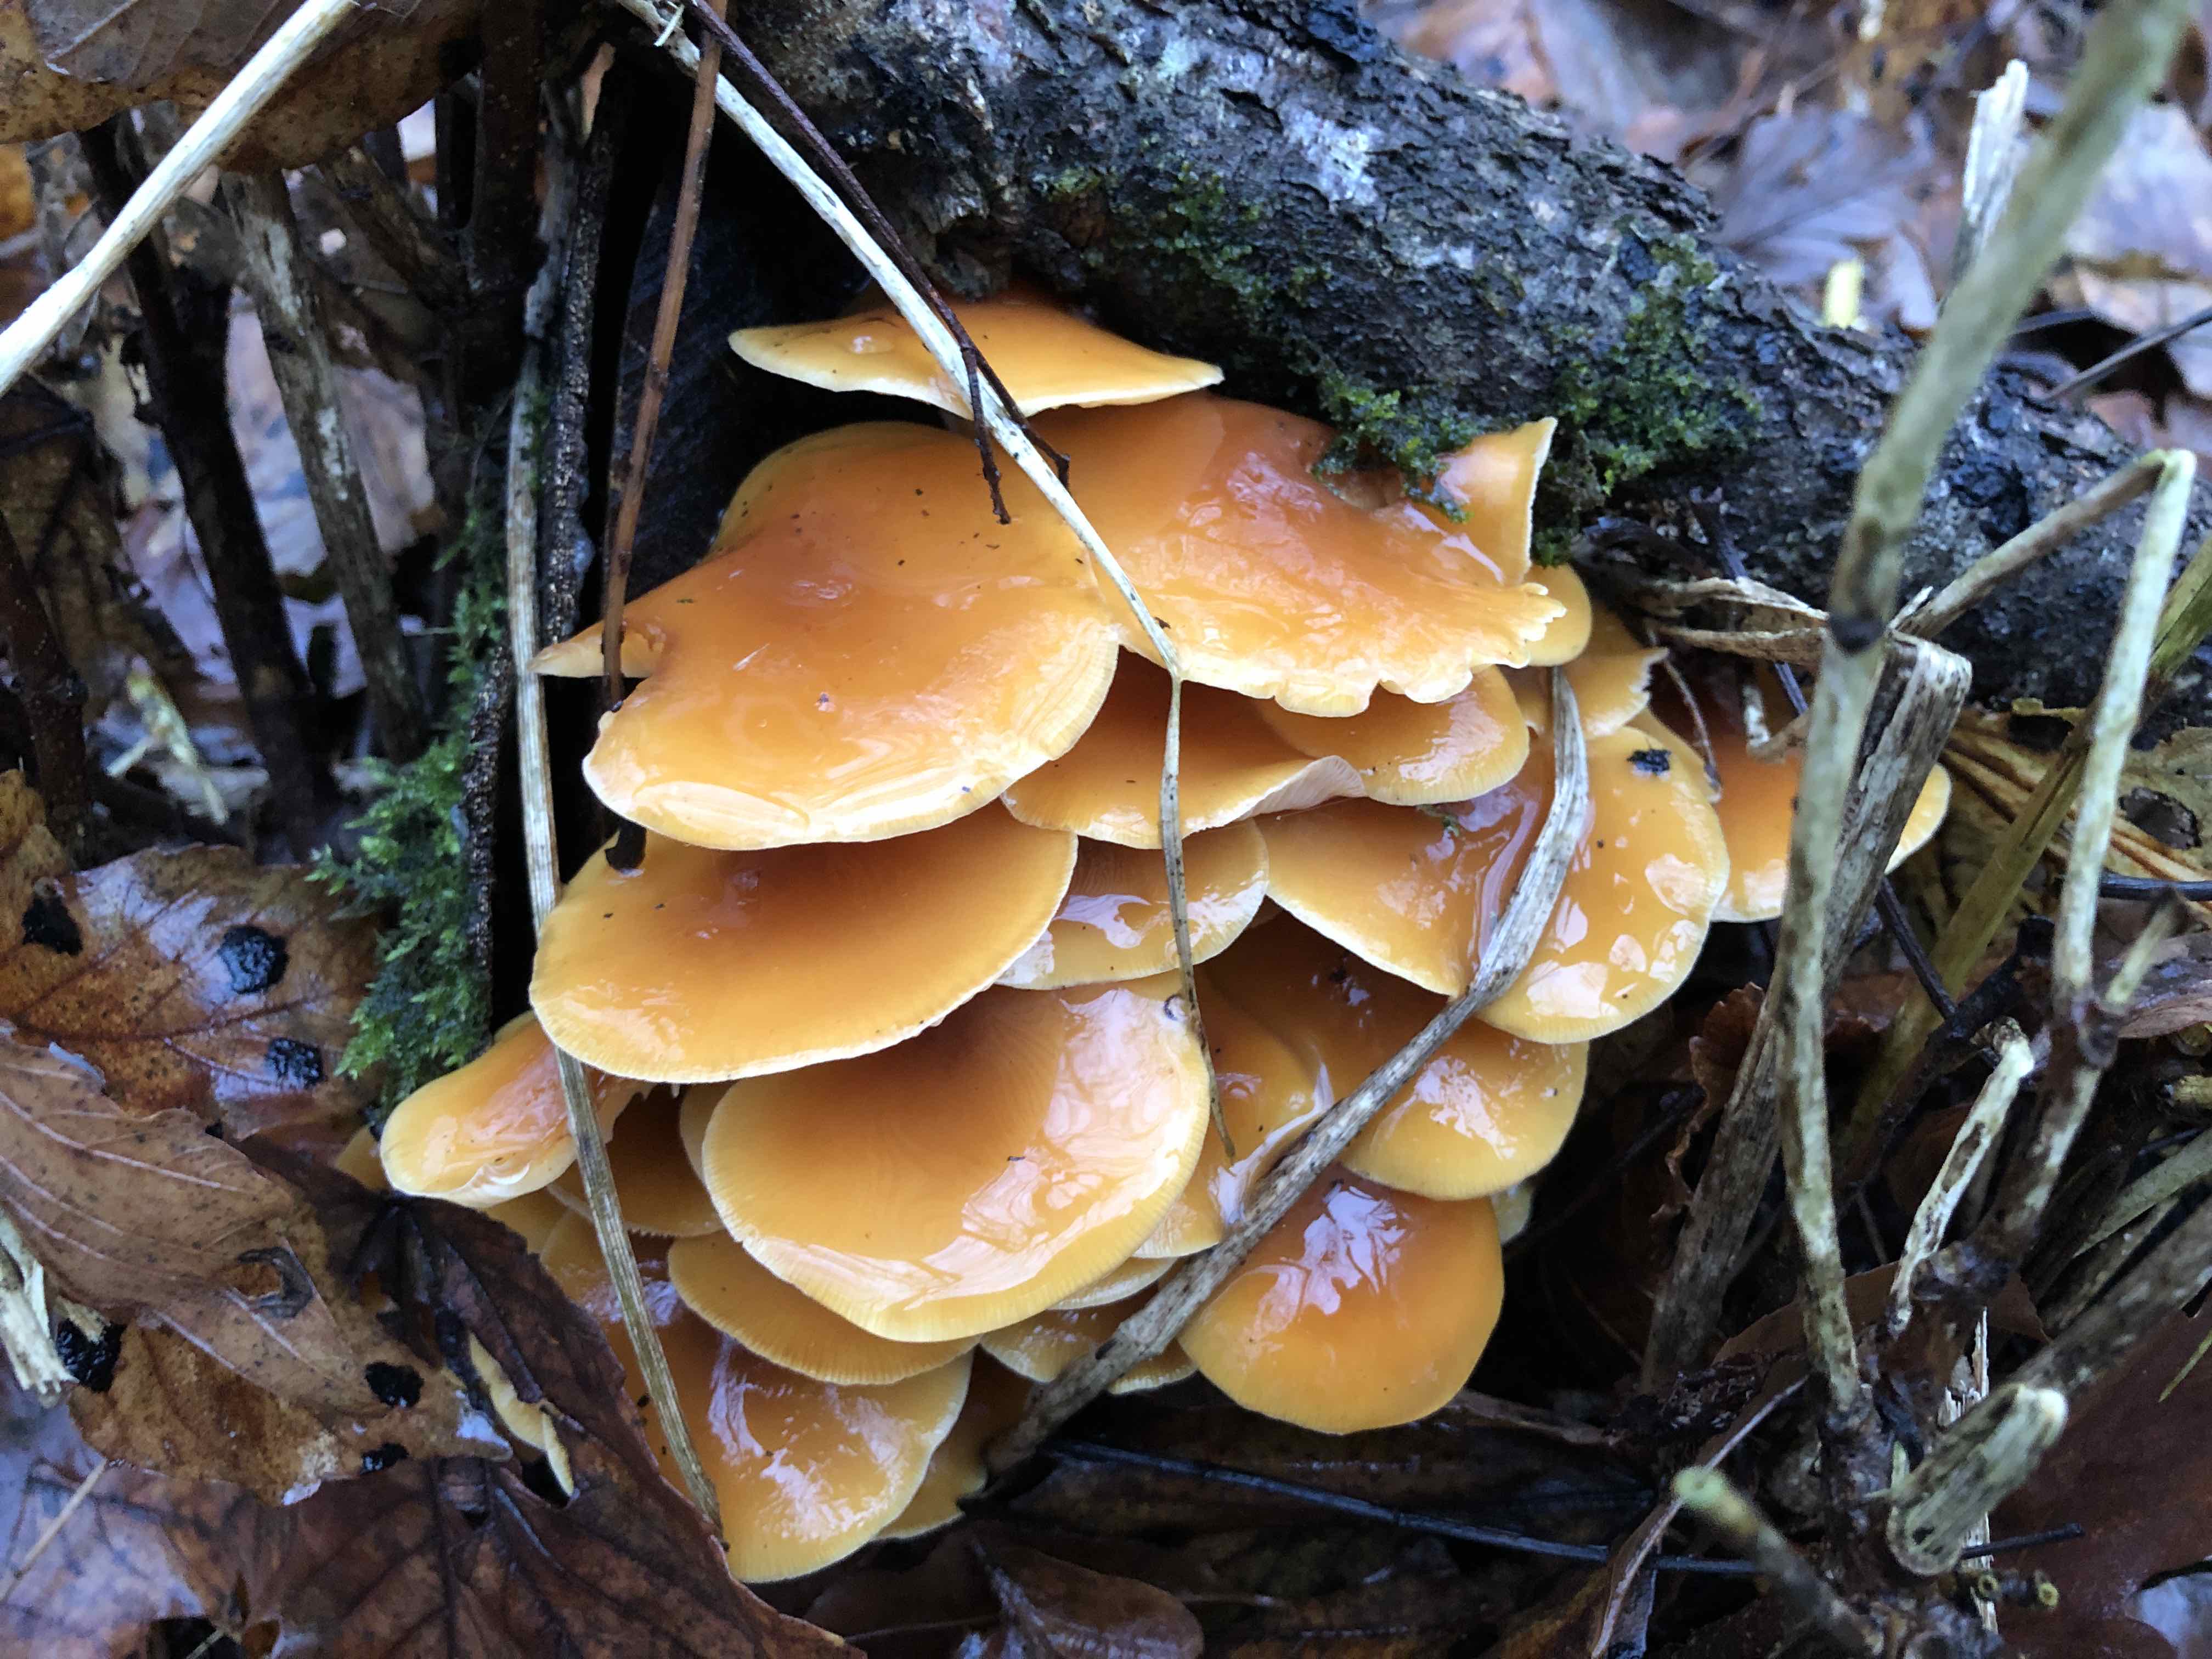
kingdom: Fungi
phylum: Basidiomycota
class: Agaricomycetes
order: Agaricales
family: Physalacriaceae
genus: Flammulina
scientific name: Flammulina velutipes
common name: gul fløjlsfod
